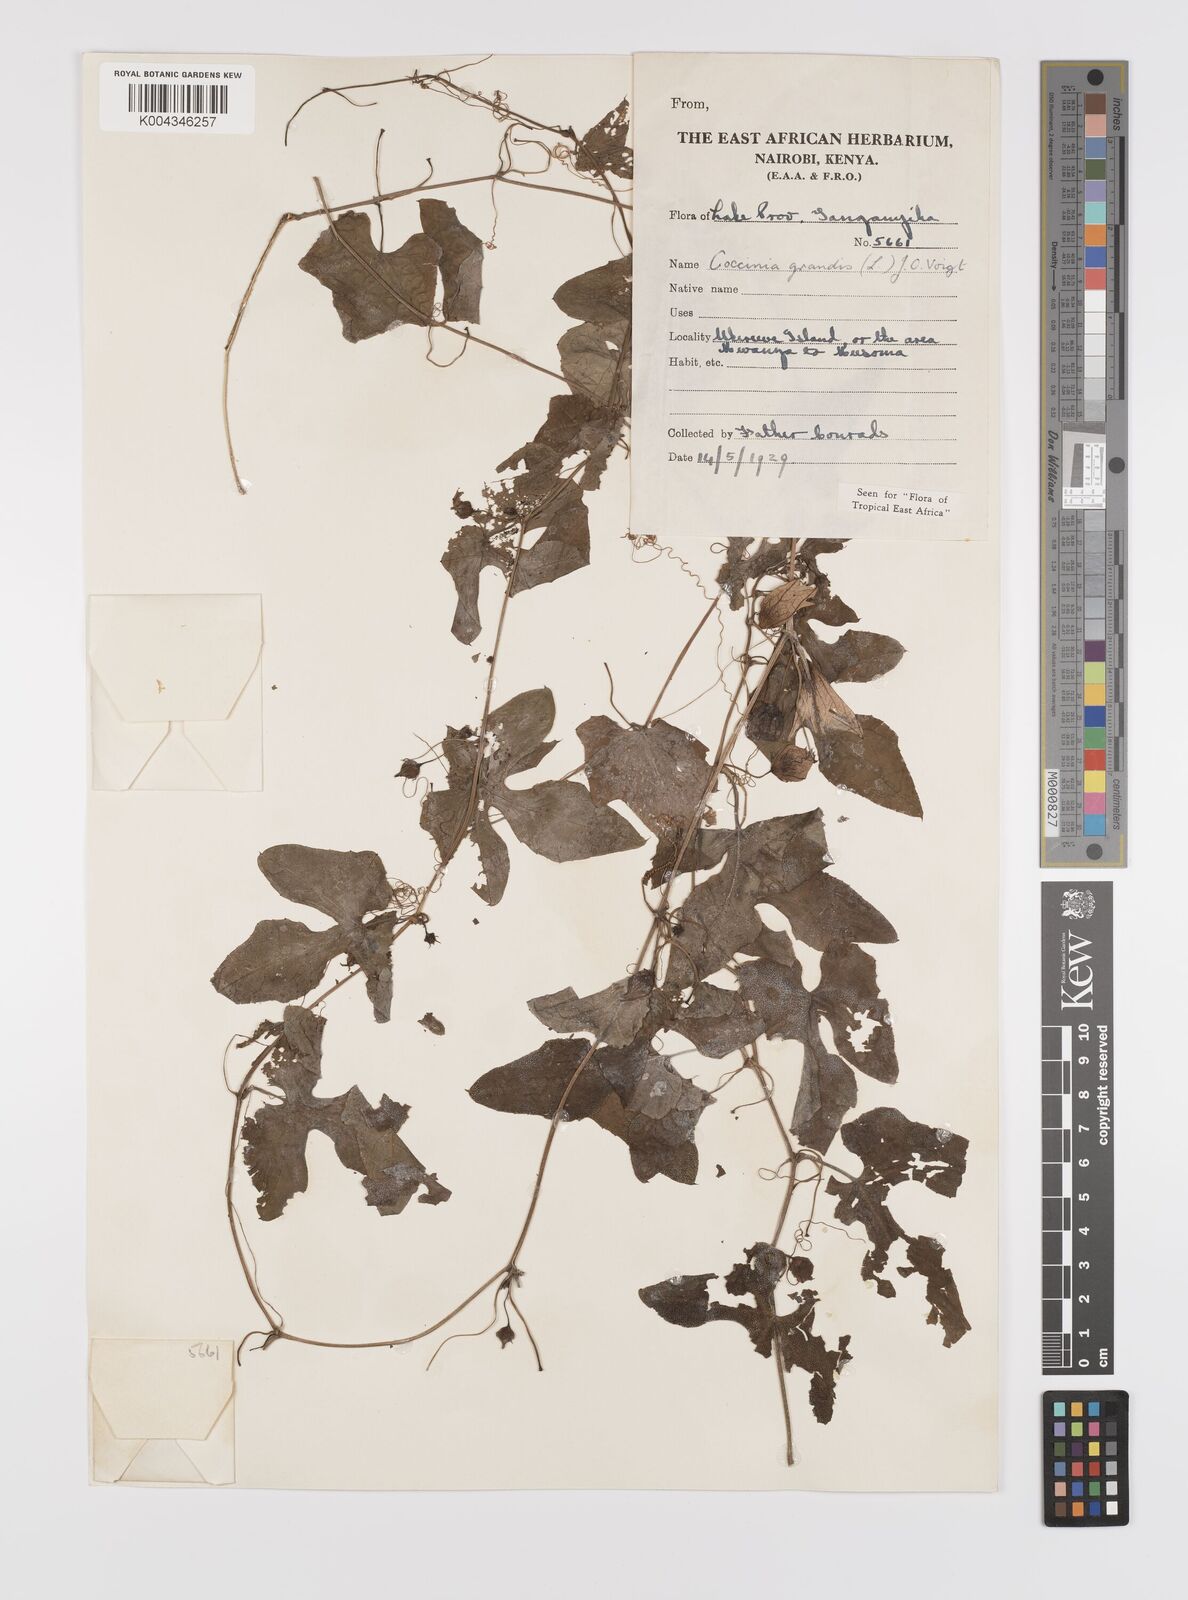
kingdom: Plantae
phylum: Tracheophyta
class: Magnoliopsida
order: Cucurbitales
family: Cucurbitaceae
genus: Coccinia
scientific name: Coccinia grandis
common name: Ivy gourd
